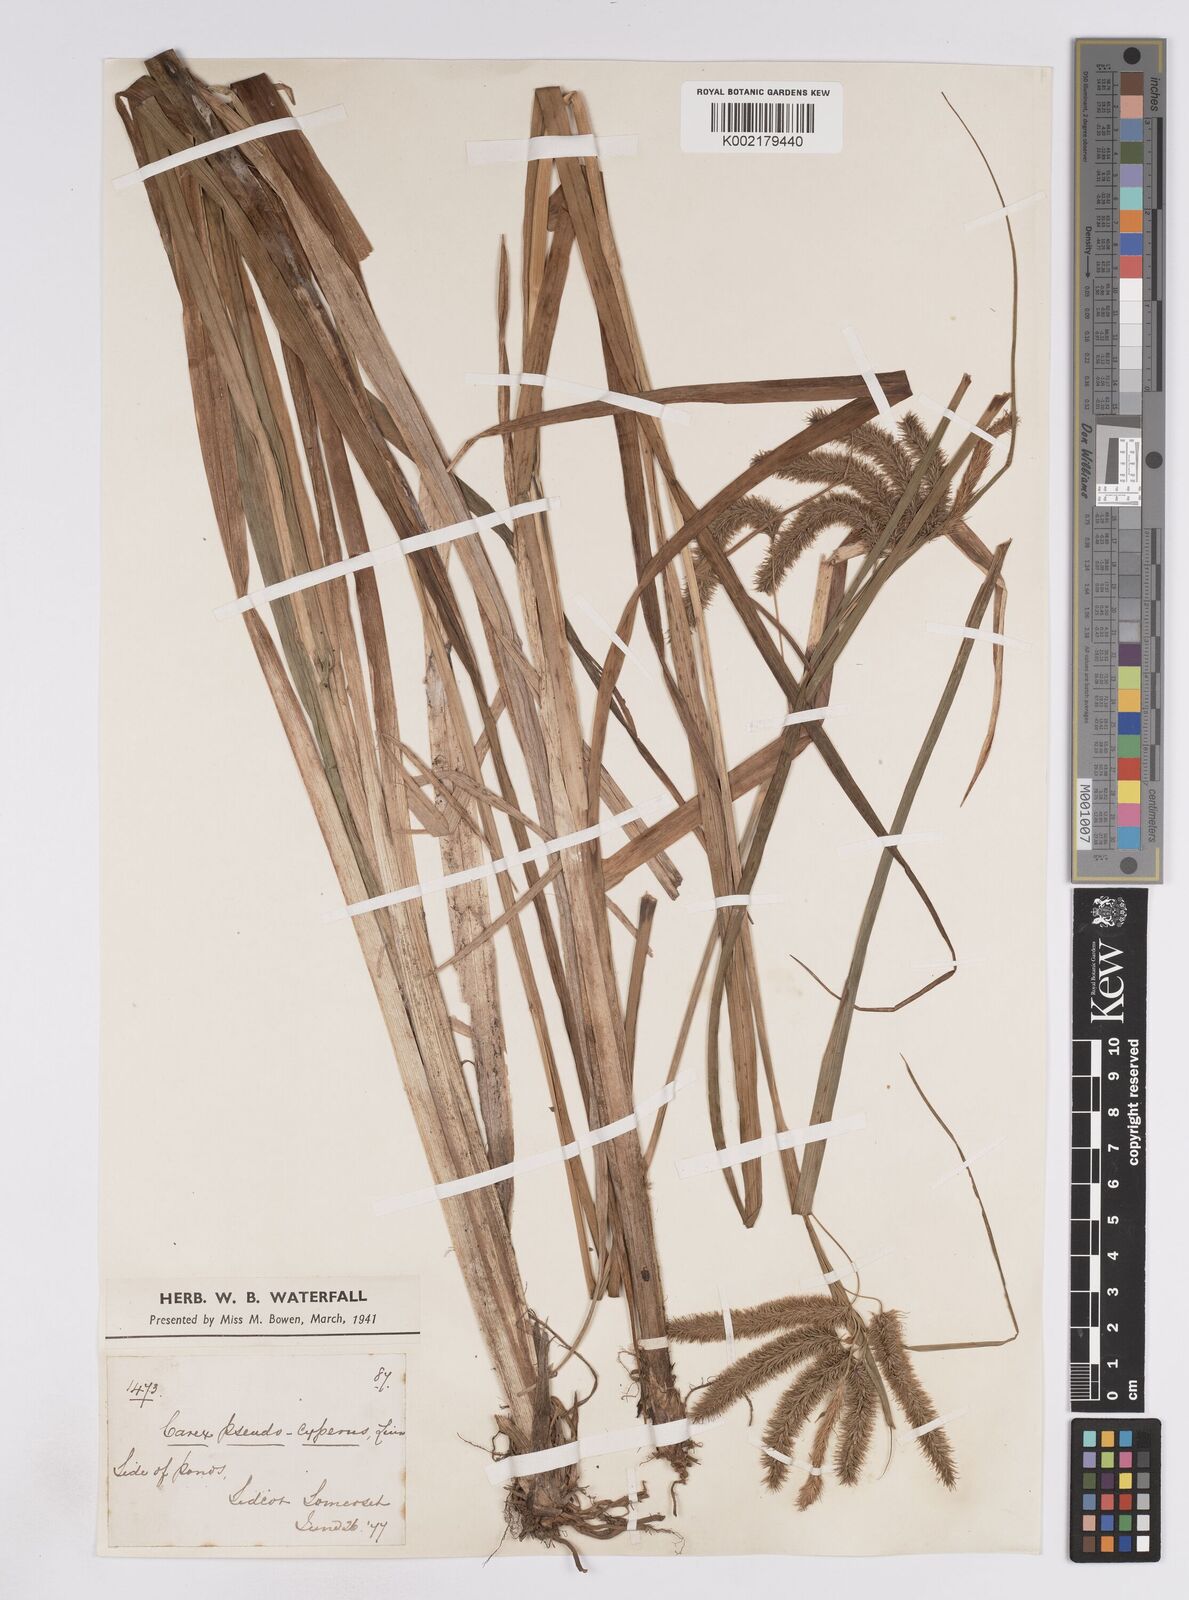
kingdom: Plantae
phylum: Tracheophyta
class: Liliopsida
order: Poales
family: Cyperaceae
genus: Carex
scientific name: Carex pseudocyperus
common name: Cyperus sedge
